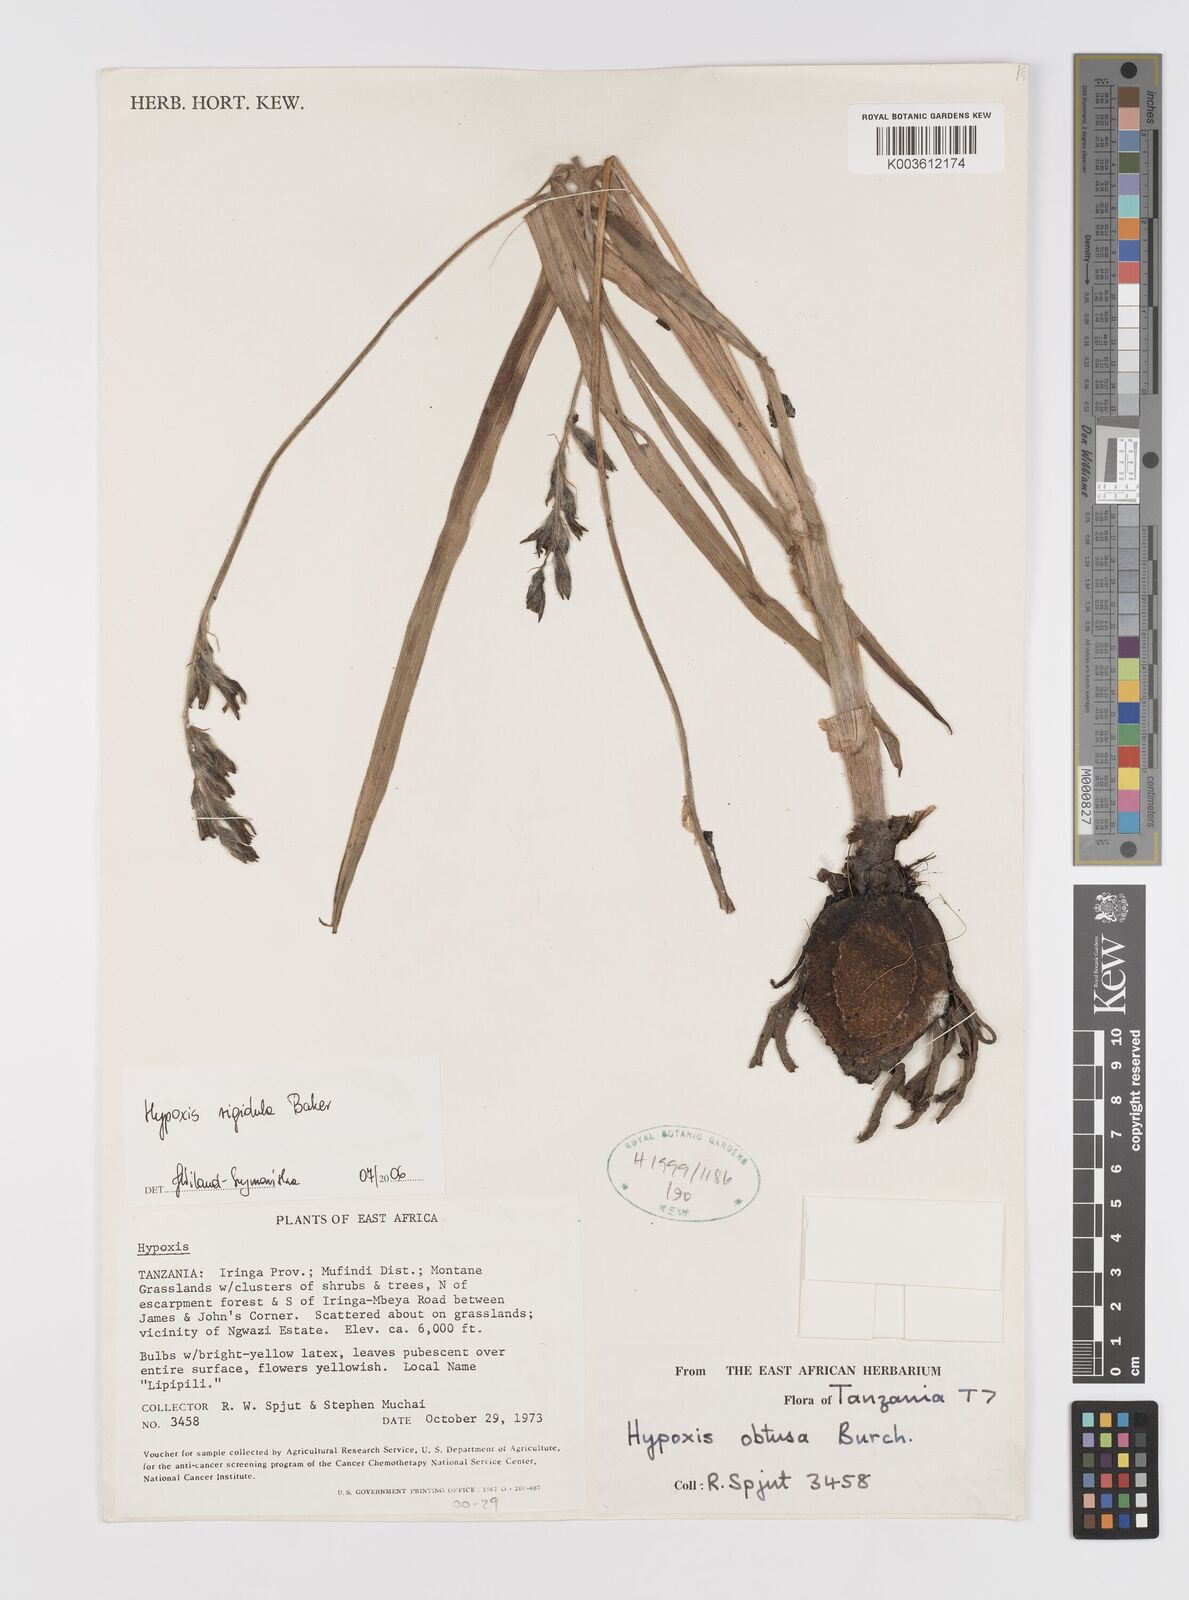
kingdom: Plantae
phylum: Tracheophyta
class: Liliopsida
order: Asparagales
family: Hypoxidaceae
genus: Hypoxis
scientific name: Hypoxis rigidula
